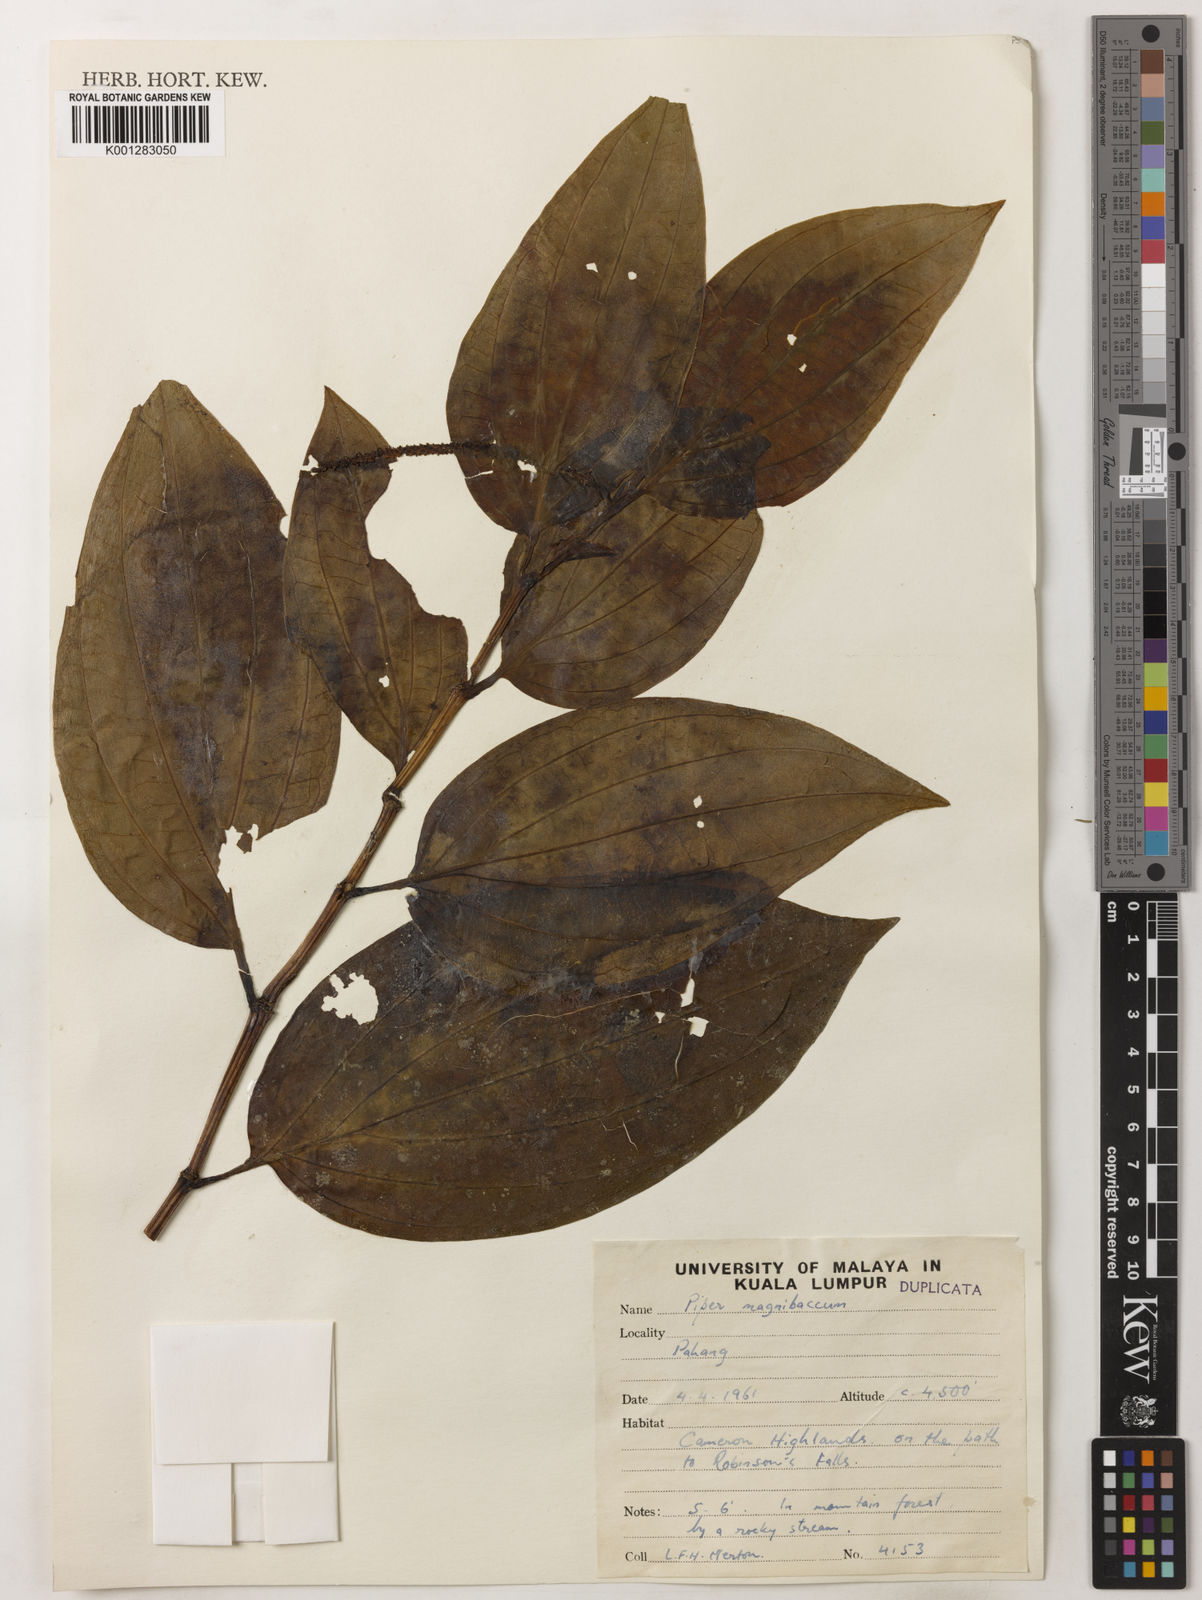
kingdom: Plantae
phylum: Tracheophyta
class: Magnoliopsida
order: Piperales
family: Piperaceae
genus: Piper
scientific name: Piper quinqueangulatum
